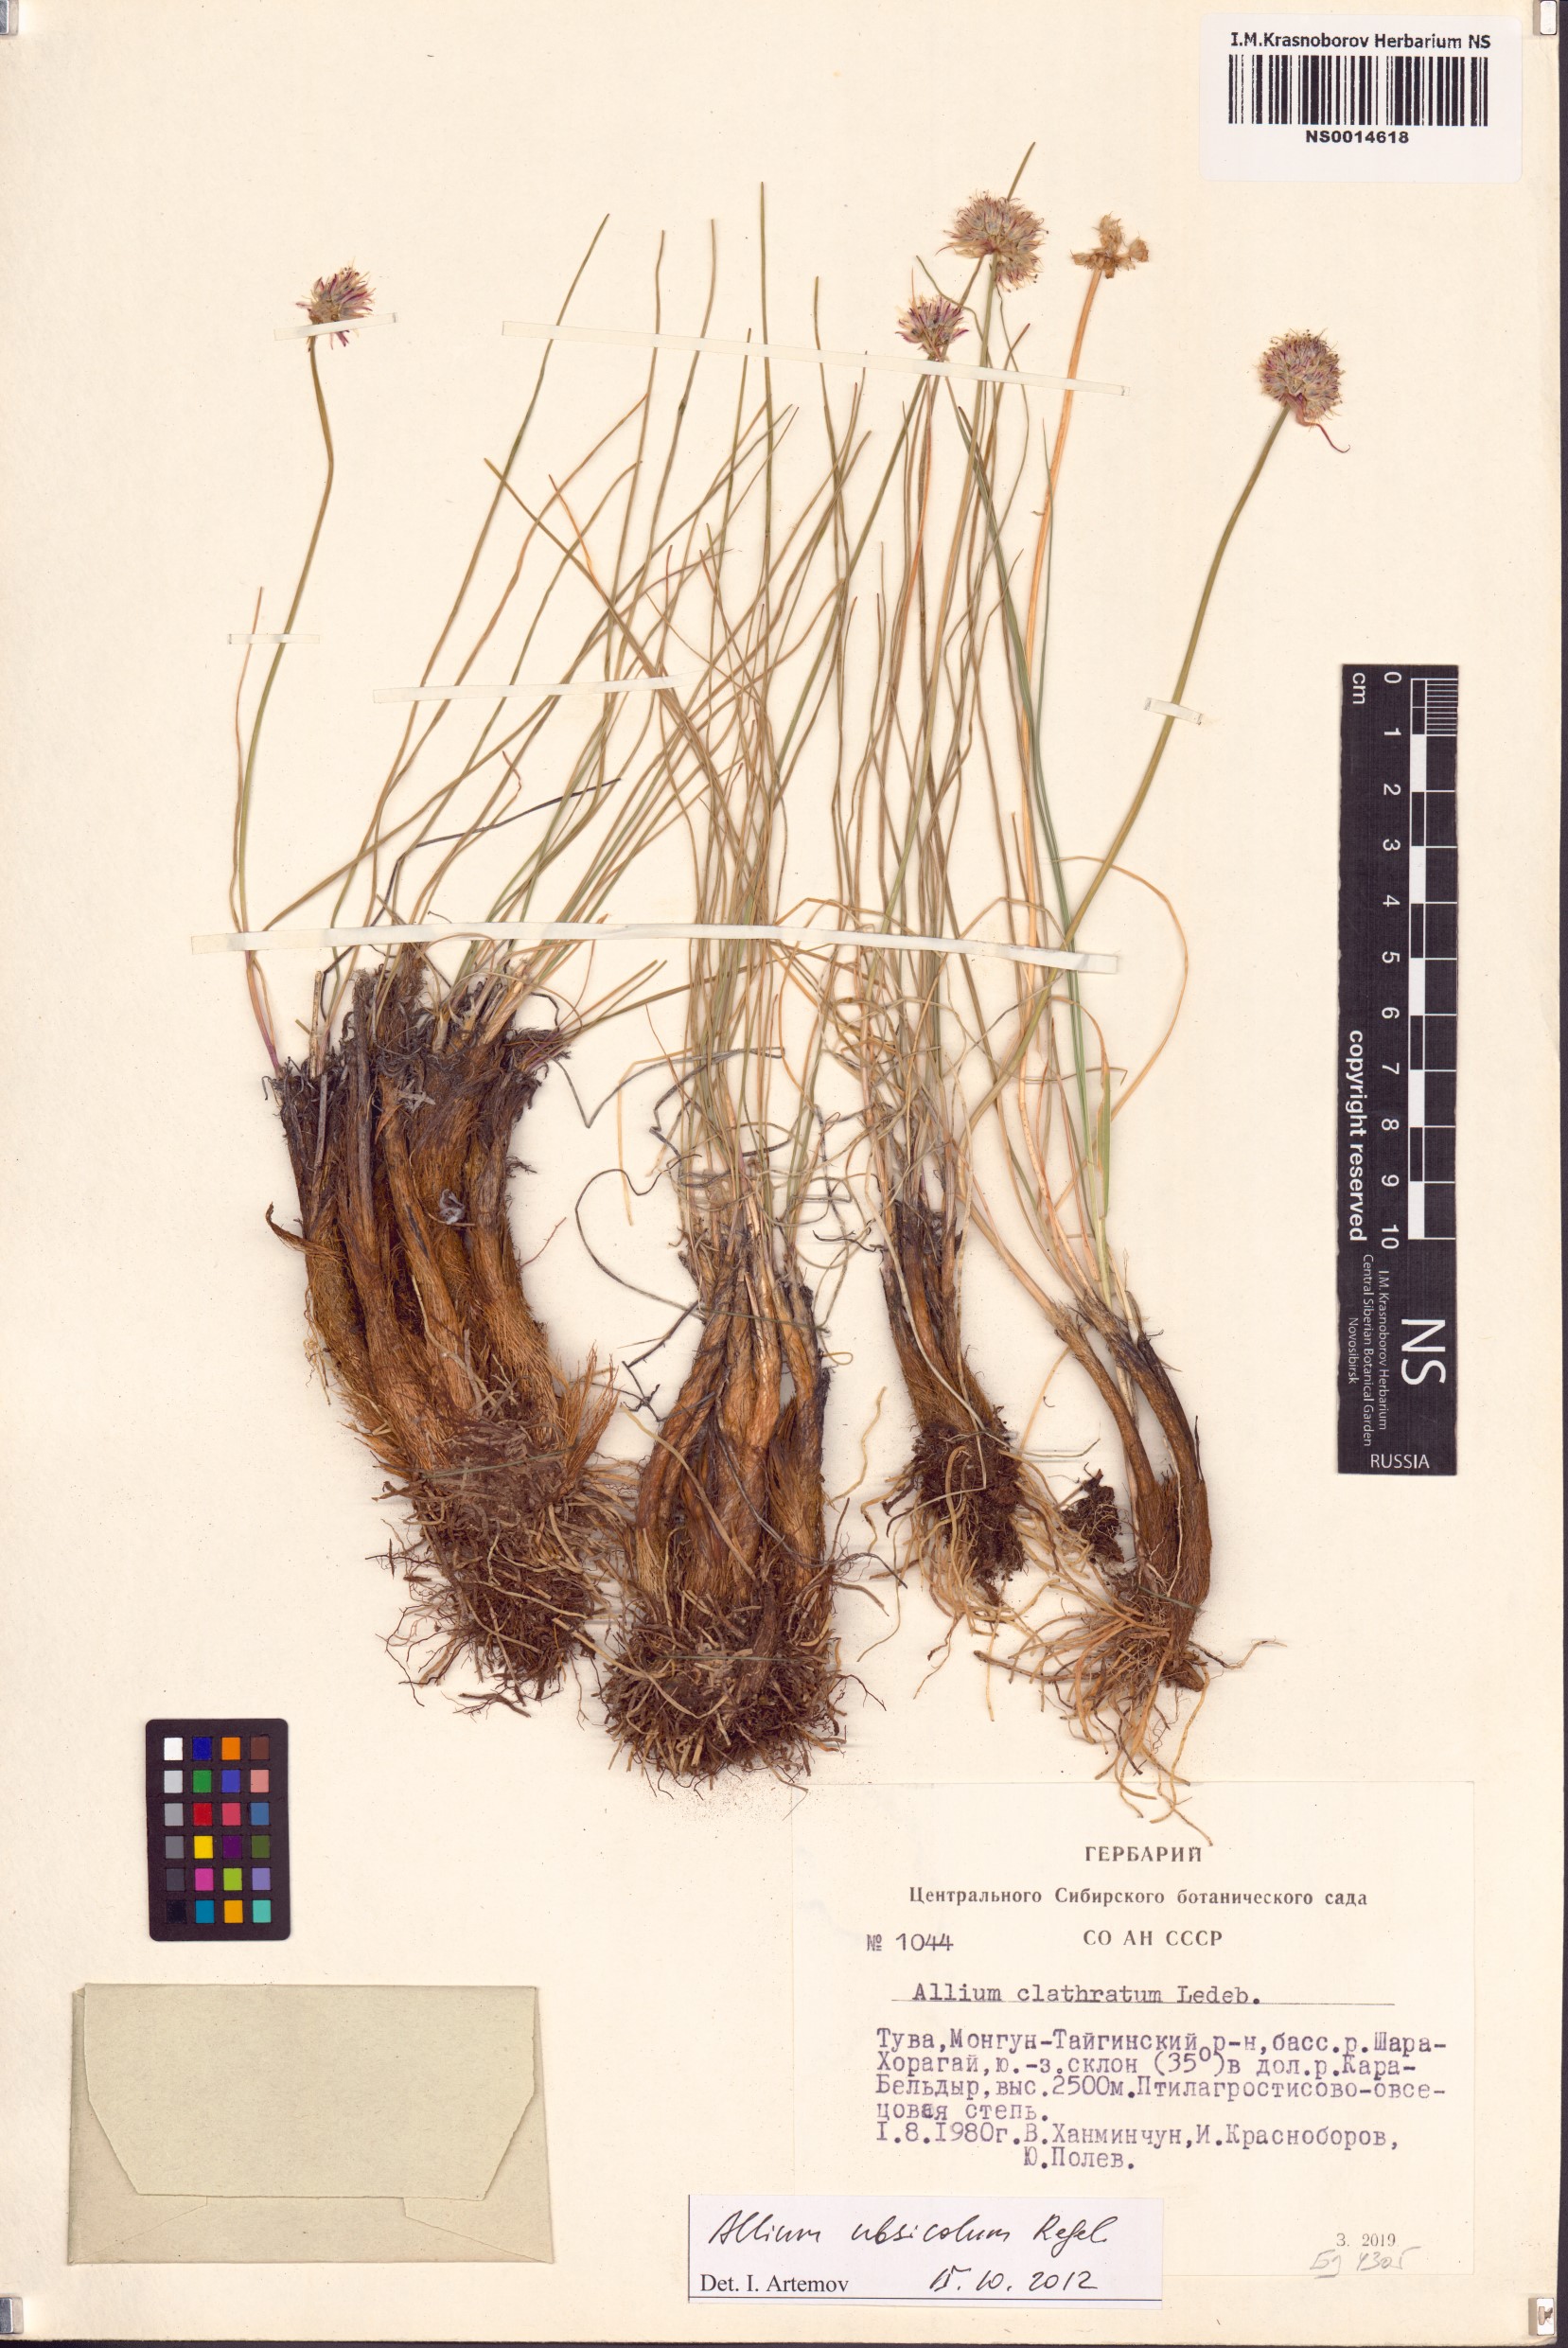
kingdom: Plantae
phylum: Tracheophyta
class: Liliopsida
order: Asparagales
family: Amaryllidaceae
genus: Allium
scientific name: Allium ubsicola
